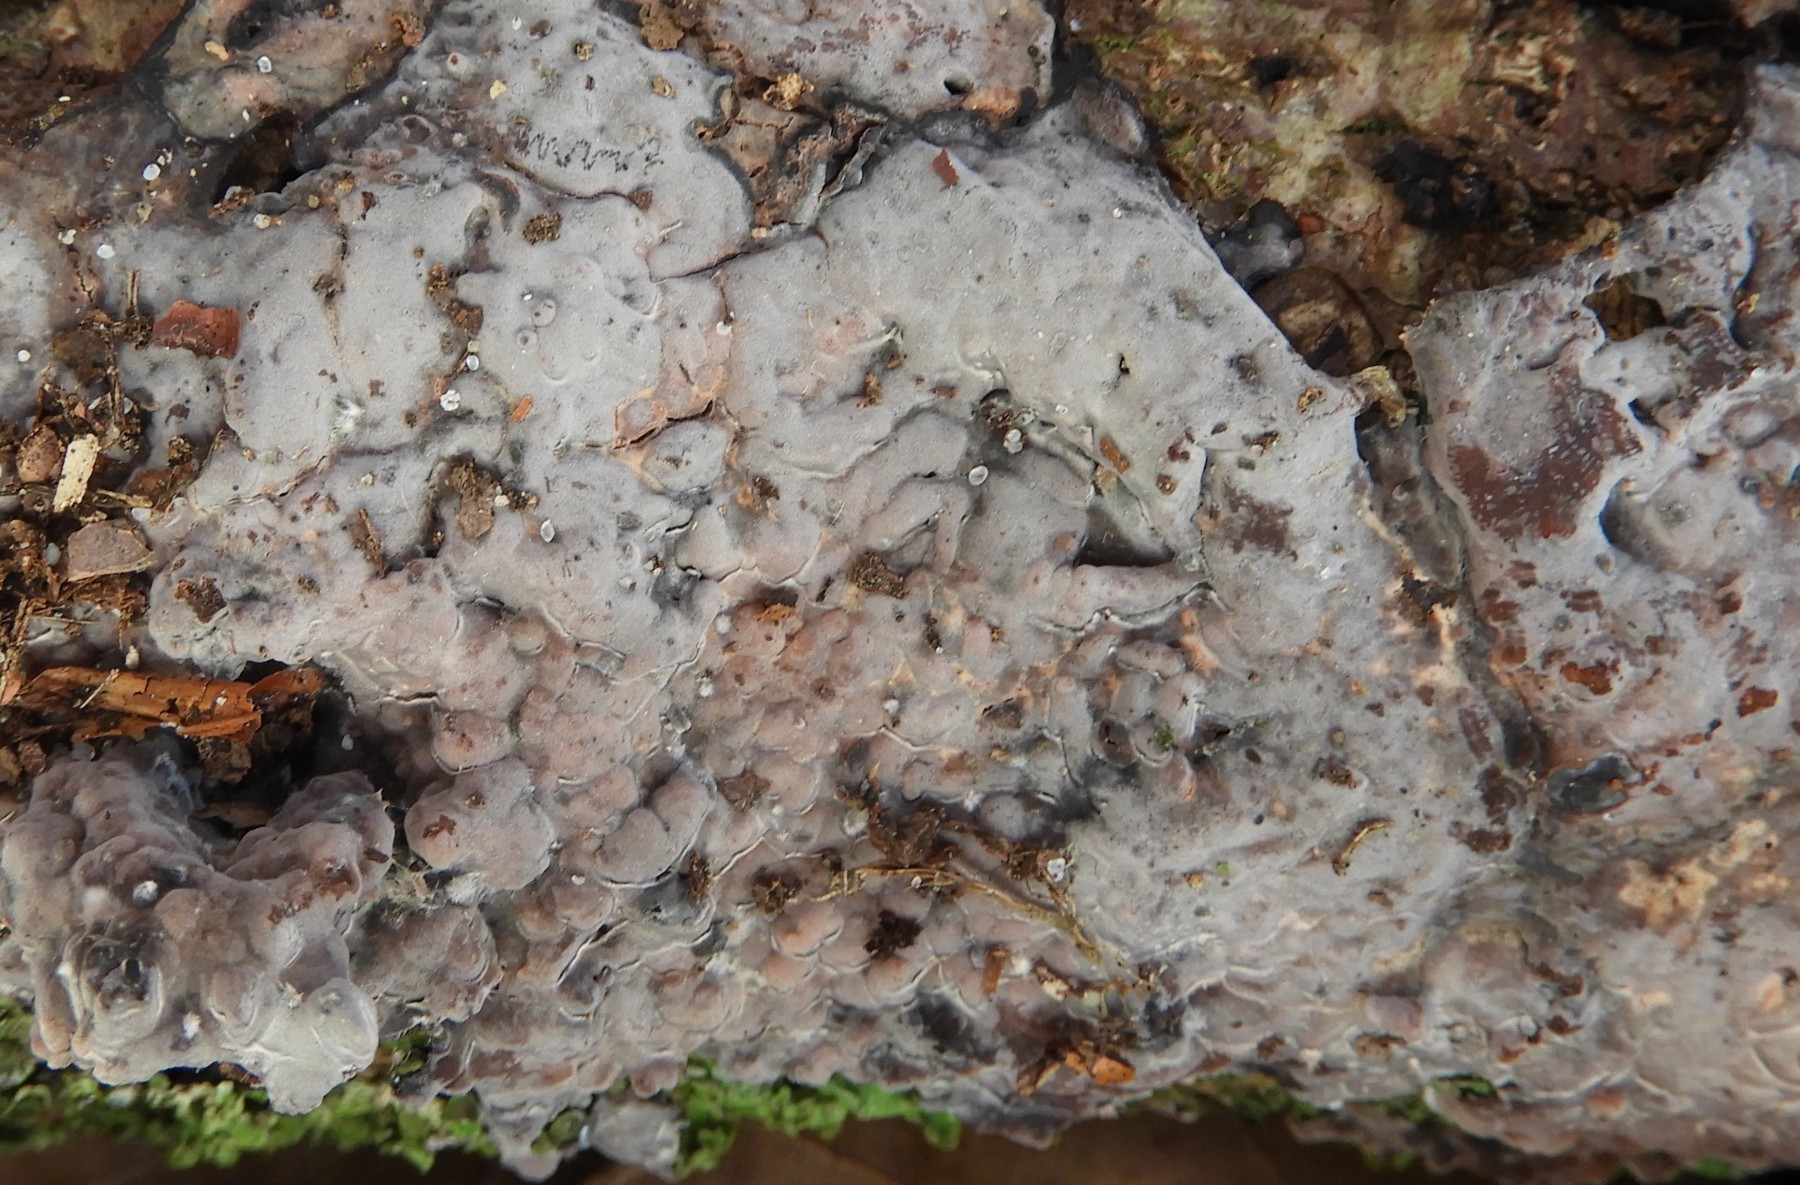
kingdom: Fungi
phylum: Basidiomycota
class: Agaricomycetes
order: Russulales
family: Peniophoraceae
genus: Peniophora
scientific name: Peniophora quercina
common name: ege-voksskind
